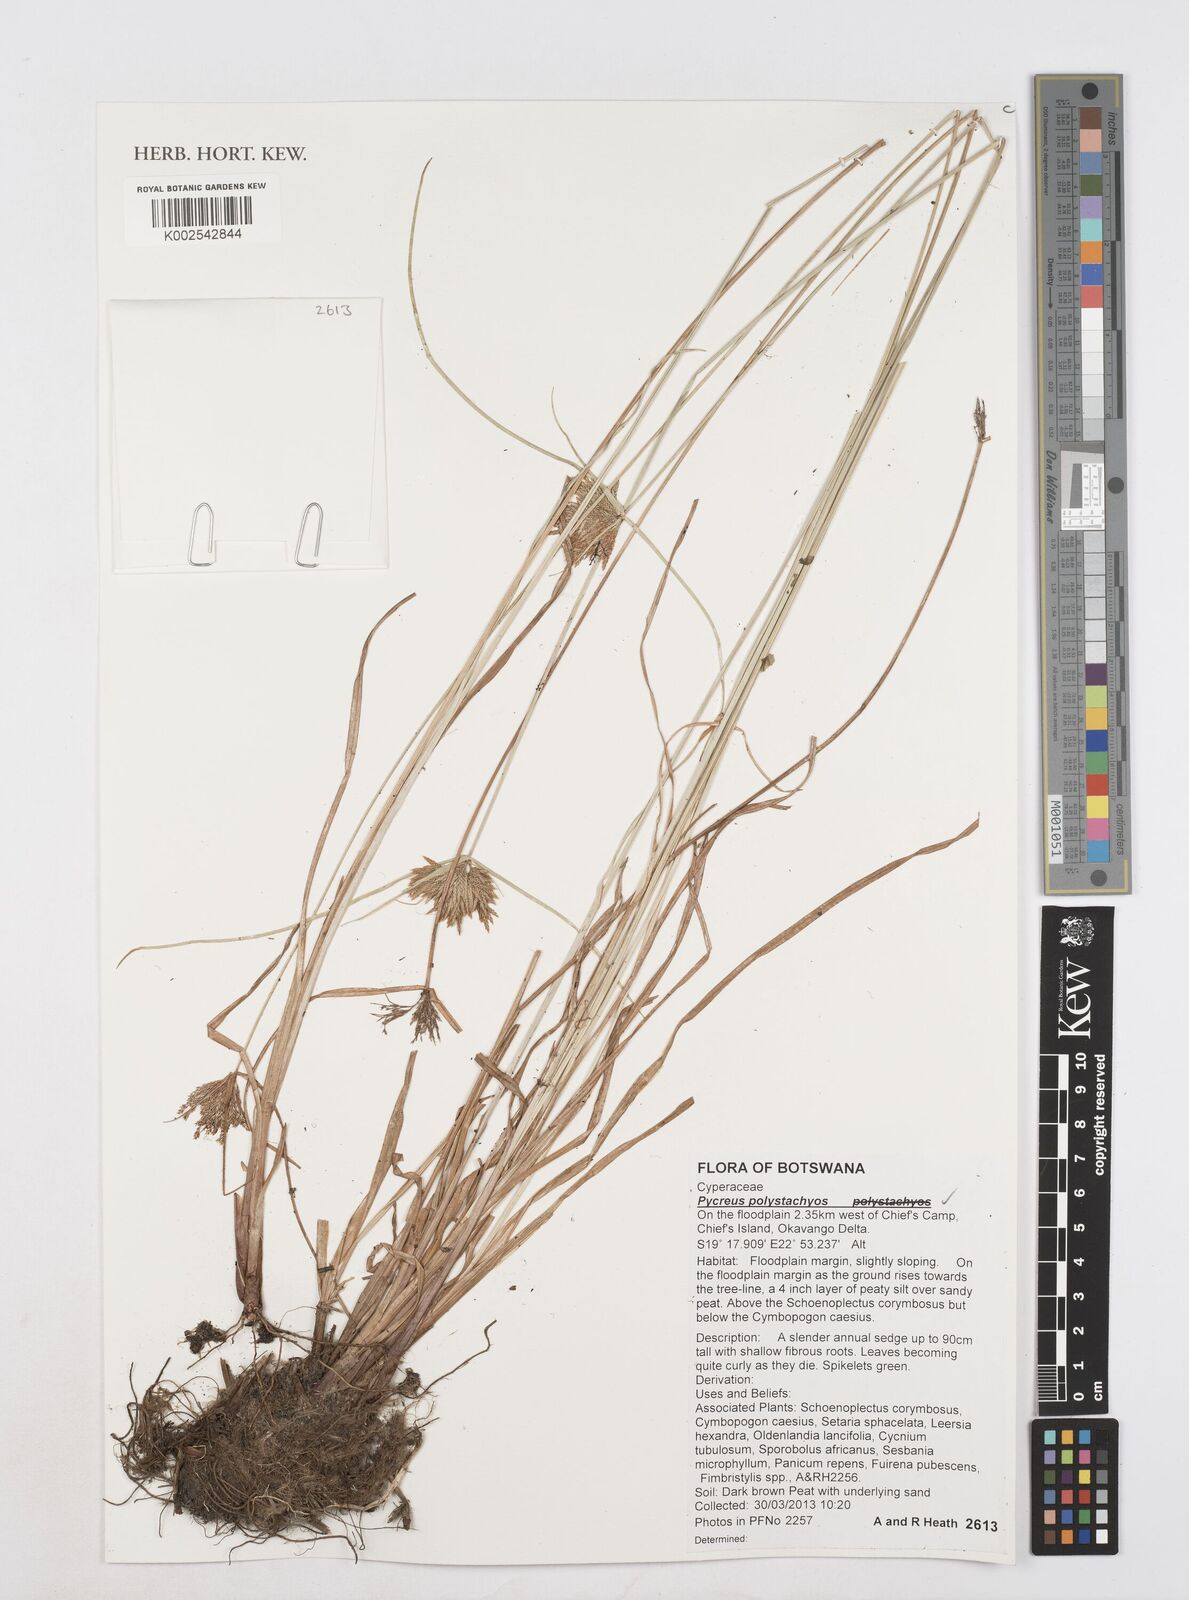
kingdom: Plantae
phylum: Tracheophyta
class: Liliopsida
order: Poales
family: Cyperaceae
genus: Cyperus
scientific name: Cyperus polystachyos
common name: Bunchy flat sedge
